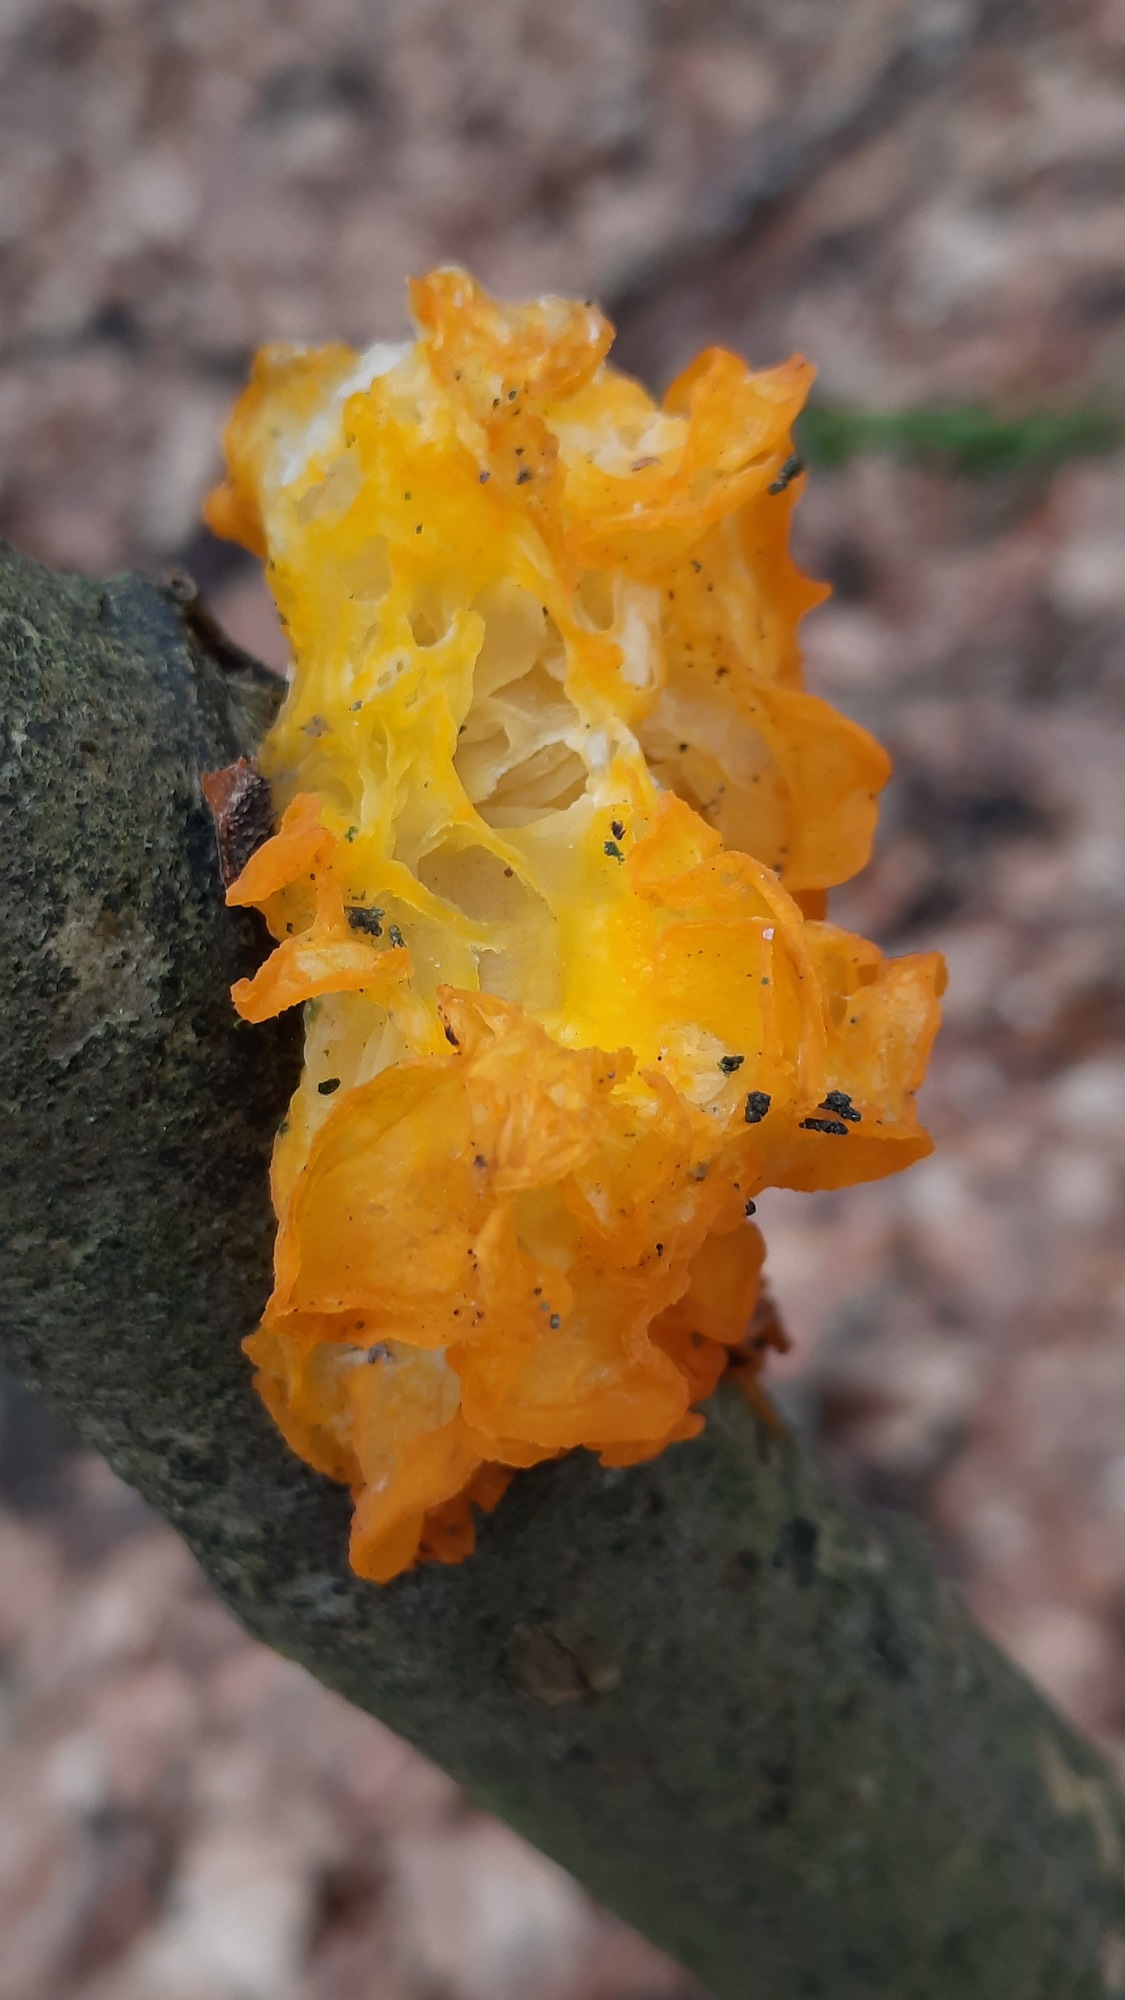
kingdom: Fungi
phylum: Basidiomycota
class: Tremellomycetes
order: Tremellales
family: Tremellaceae
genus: Tremella
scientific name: Tremella mesenterica
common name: Gul bævresvamp
